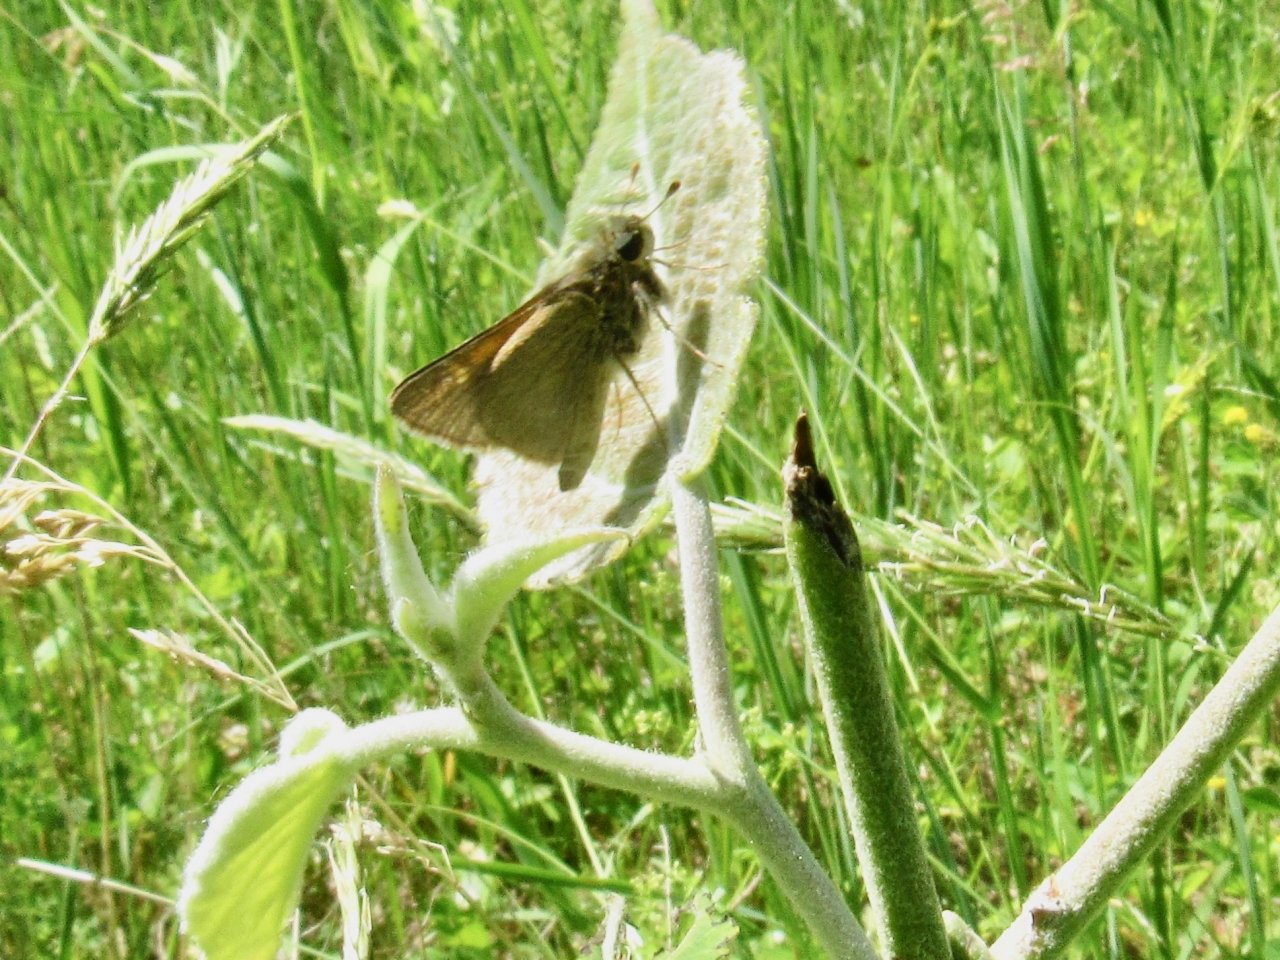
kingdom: Animalia
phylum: Arthropoda
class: Insecta
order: Lepidoptera
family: Hesperiidae
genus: Polites
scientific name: Polites themistocles
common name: Tawny-edged Skipper
